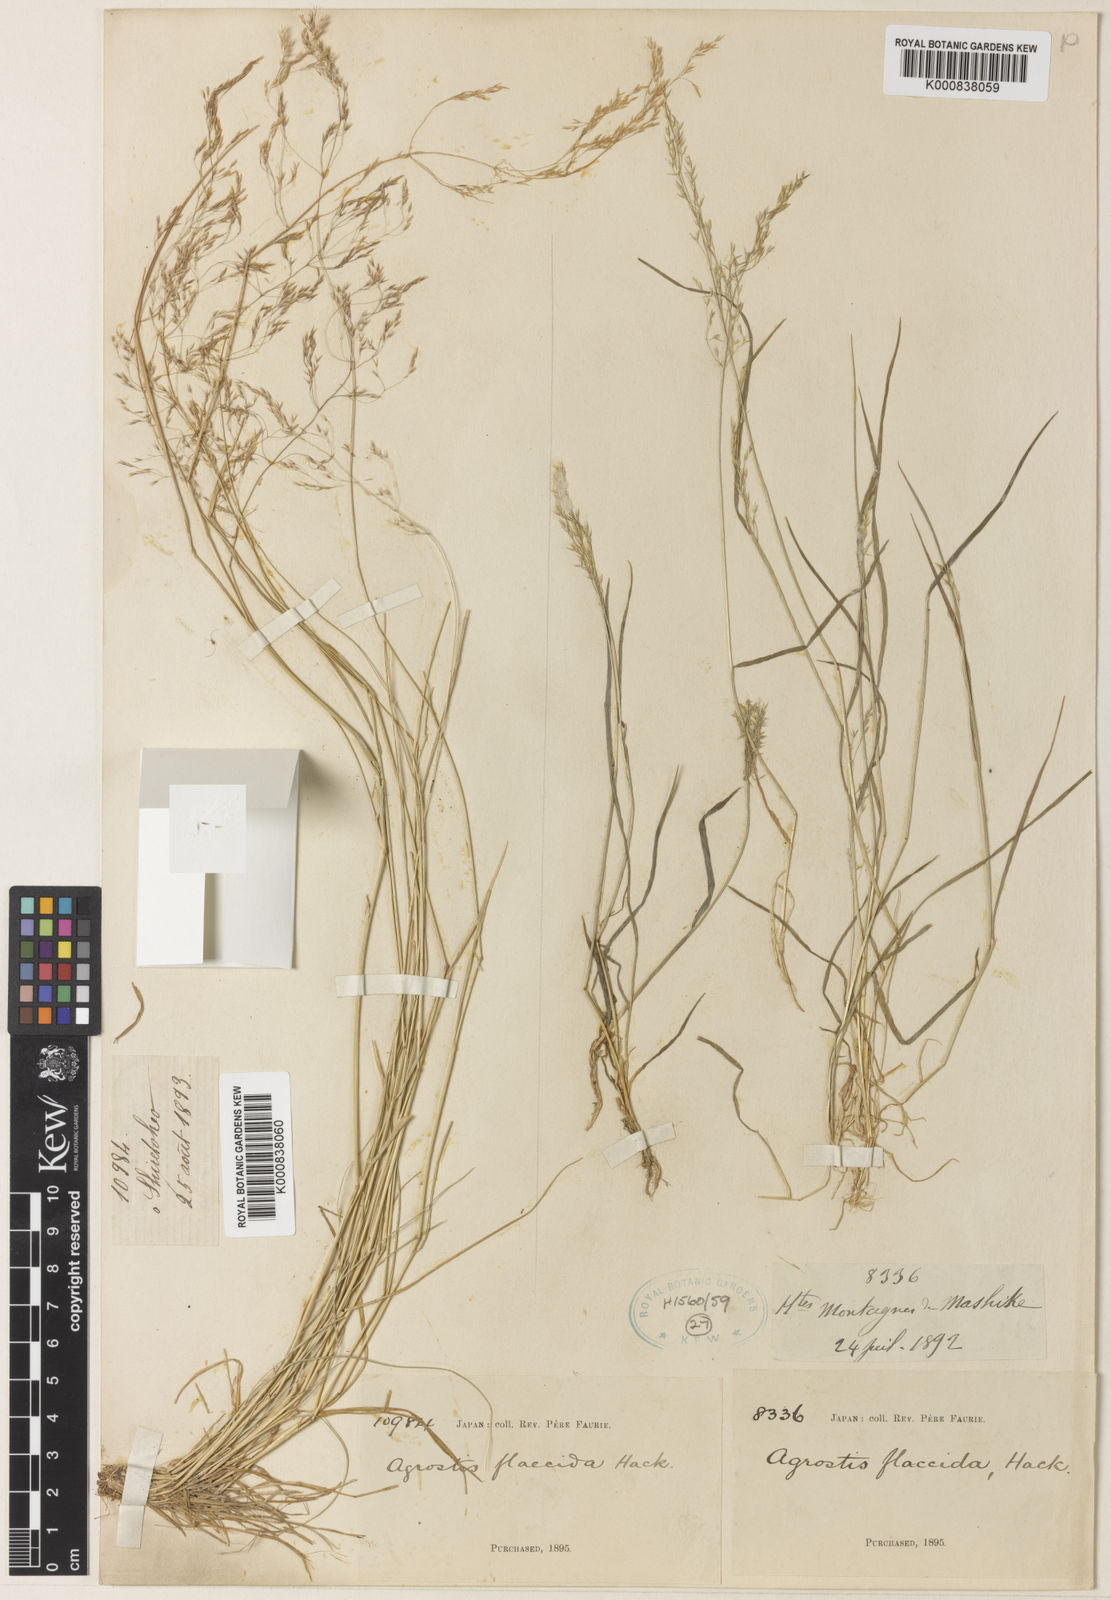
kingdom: Plantae
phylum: Tracheophyta
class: Liliopsida
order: Poales
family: Poaceae
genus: Agrostis
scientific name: Agrostis flaccida
